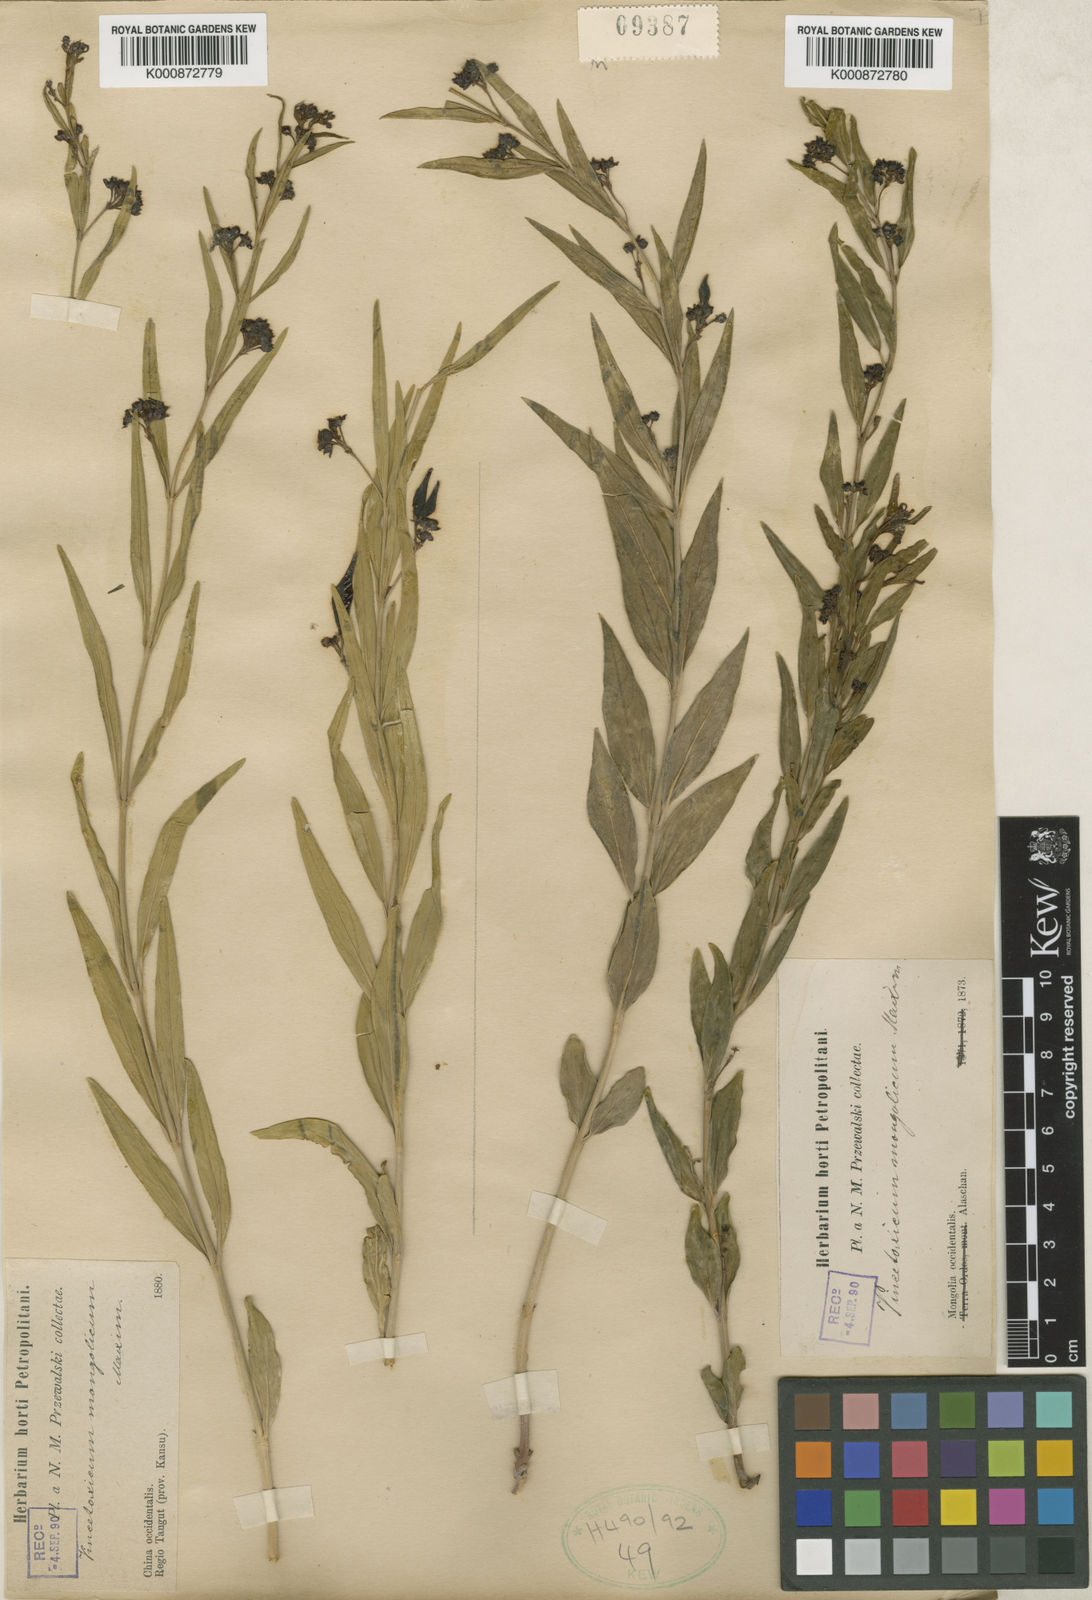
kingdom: Plantae
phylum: Tracheophyta
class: Magnoliopsida
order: Gentianales
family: Apocynaceae
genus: Vincetoxicum
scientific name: Vincetoxicum mongolicum
